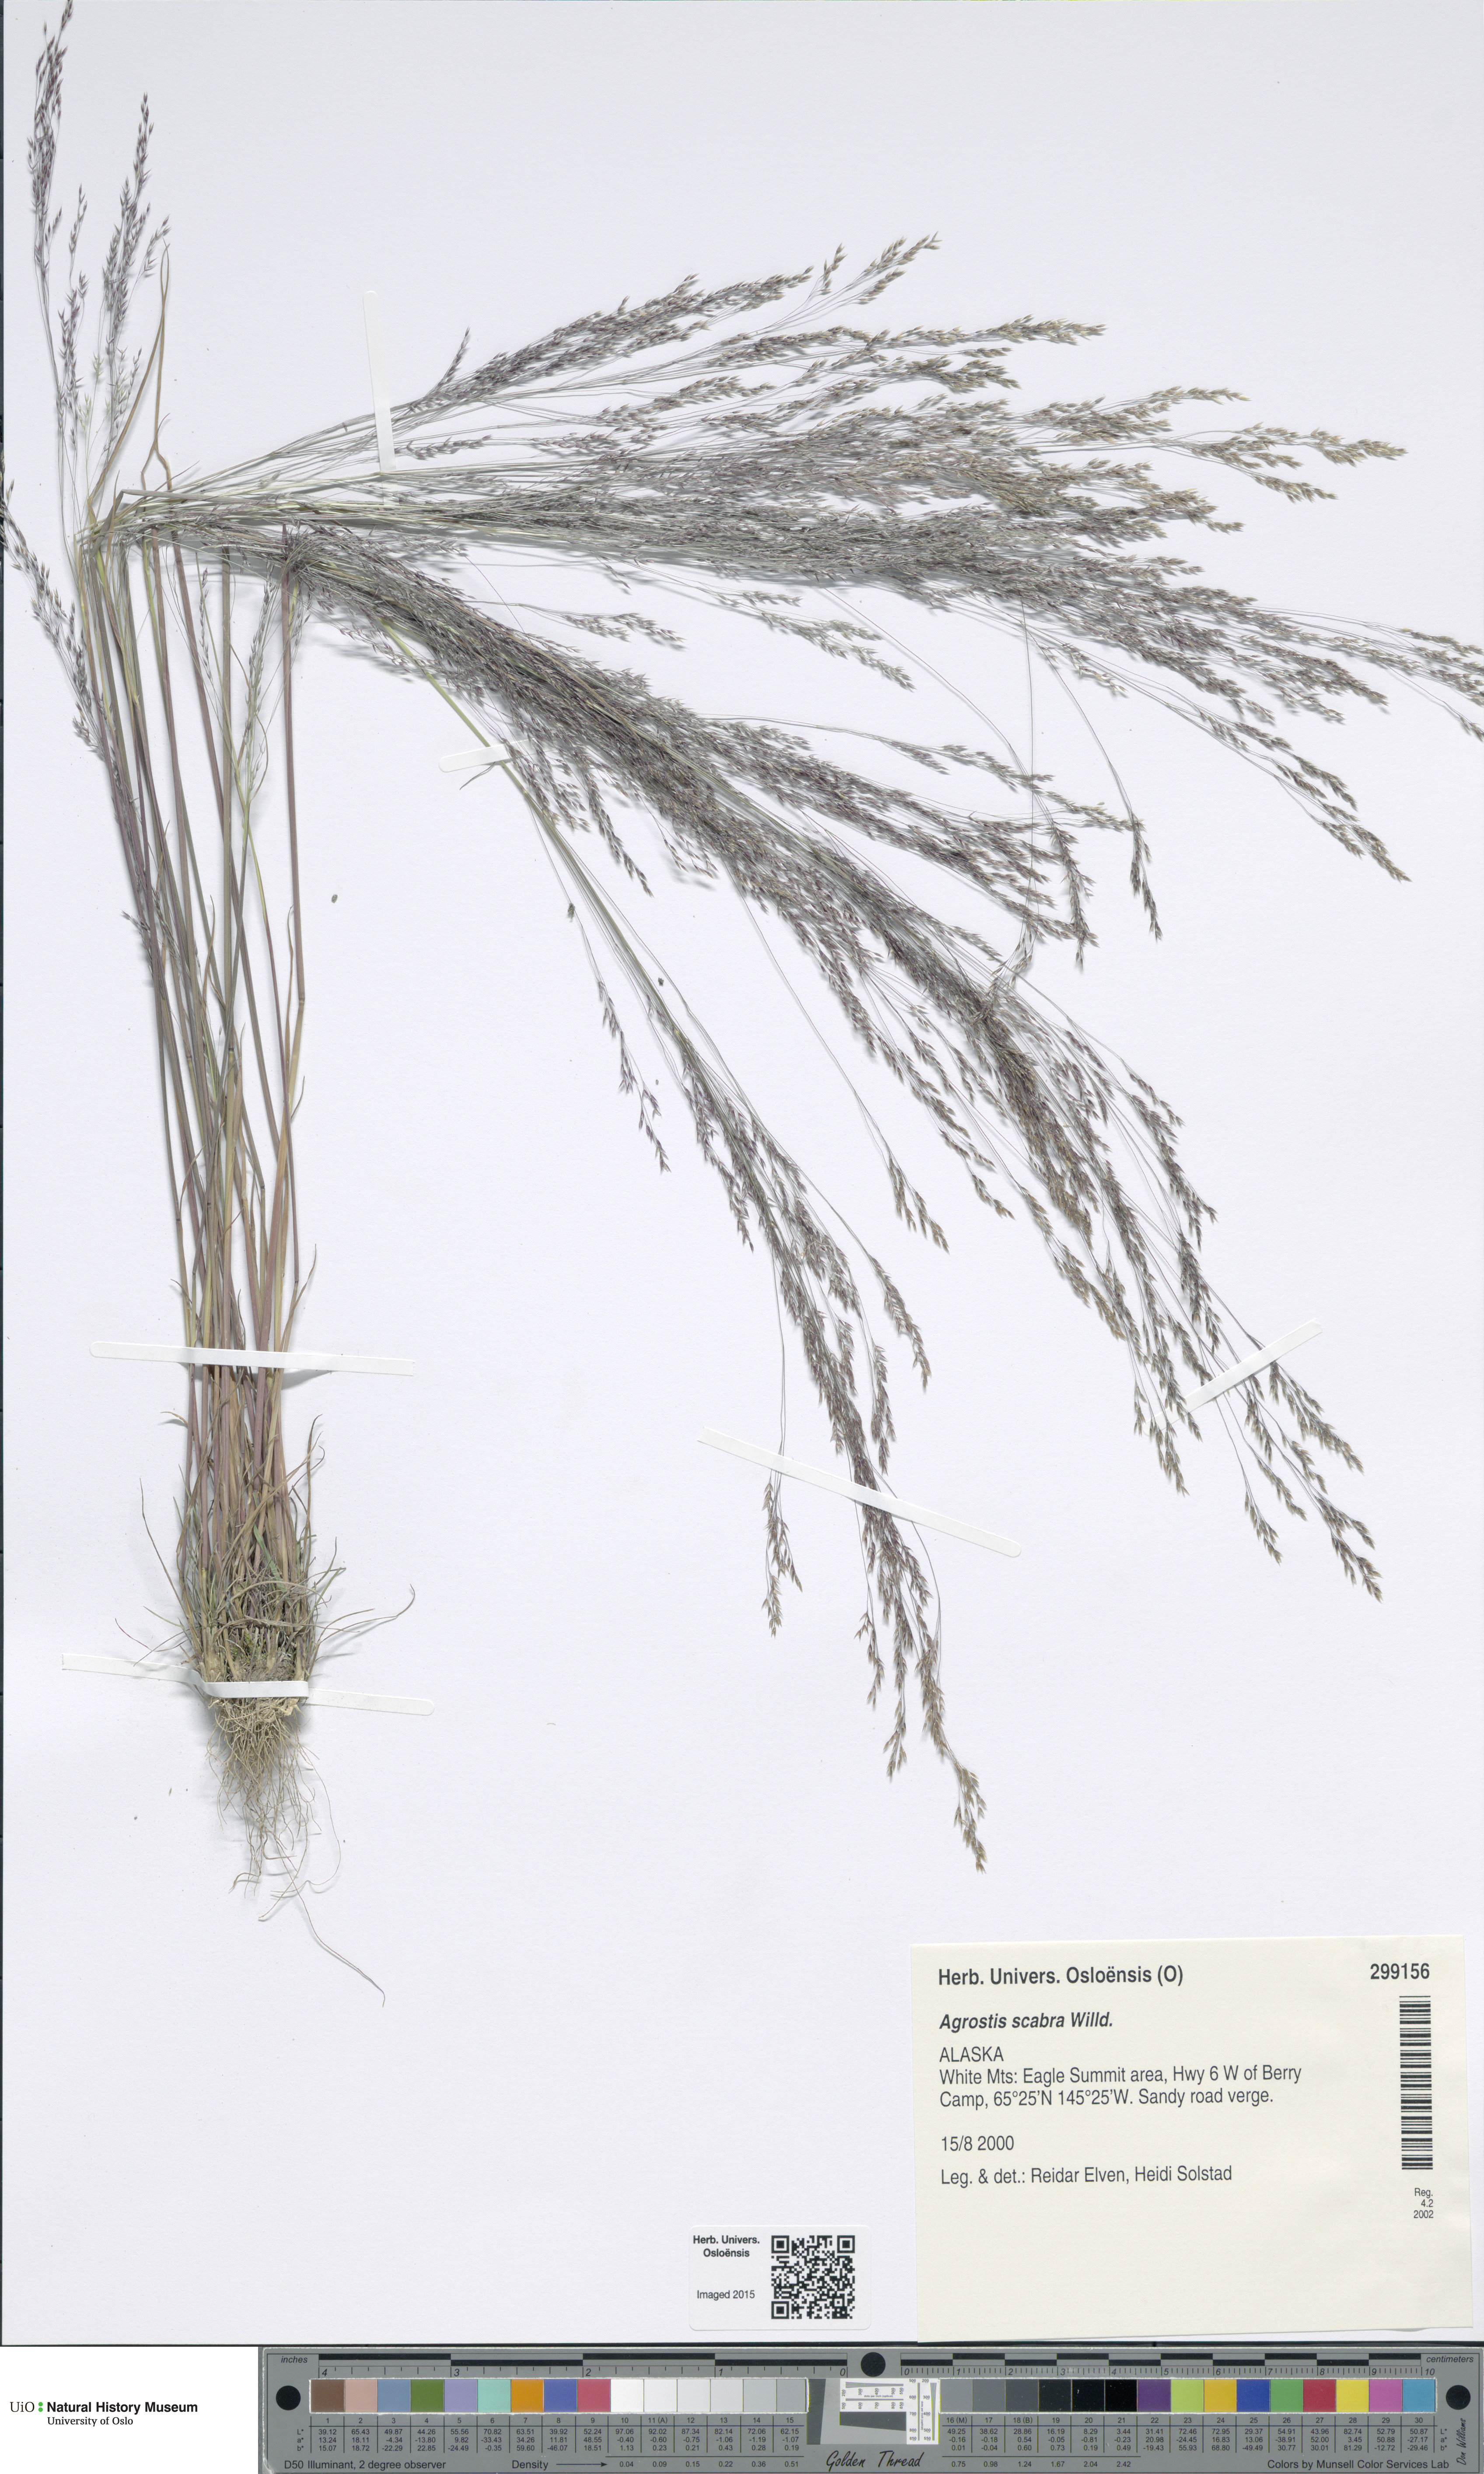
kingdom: Plantae
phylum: Tracheophyta
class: Liliopsida
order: Poales
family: Poaceae
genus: Agrostis
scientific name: Agrostis scabra
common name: Rough bent
